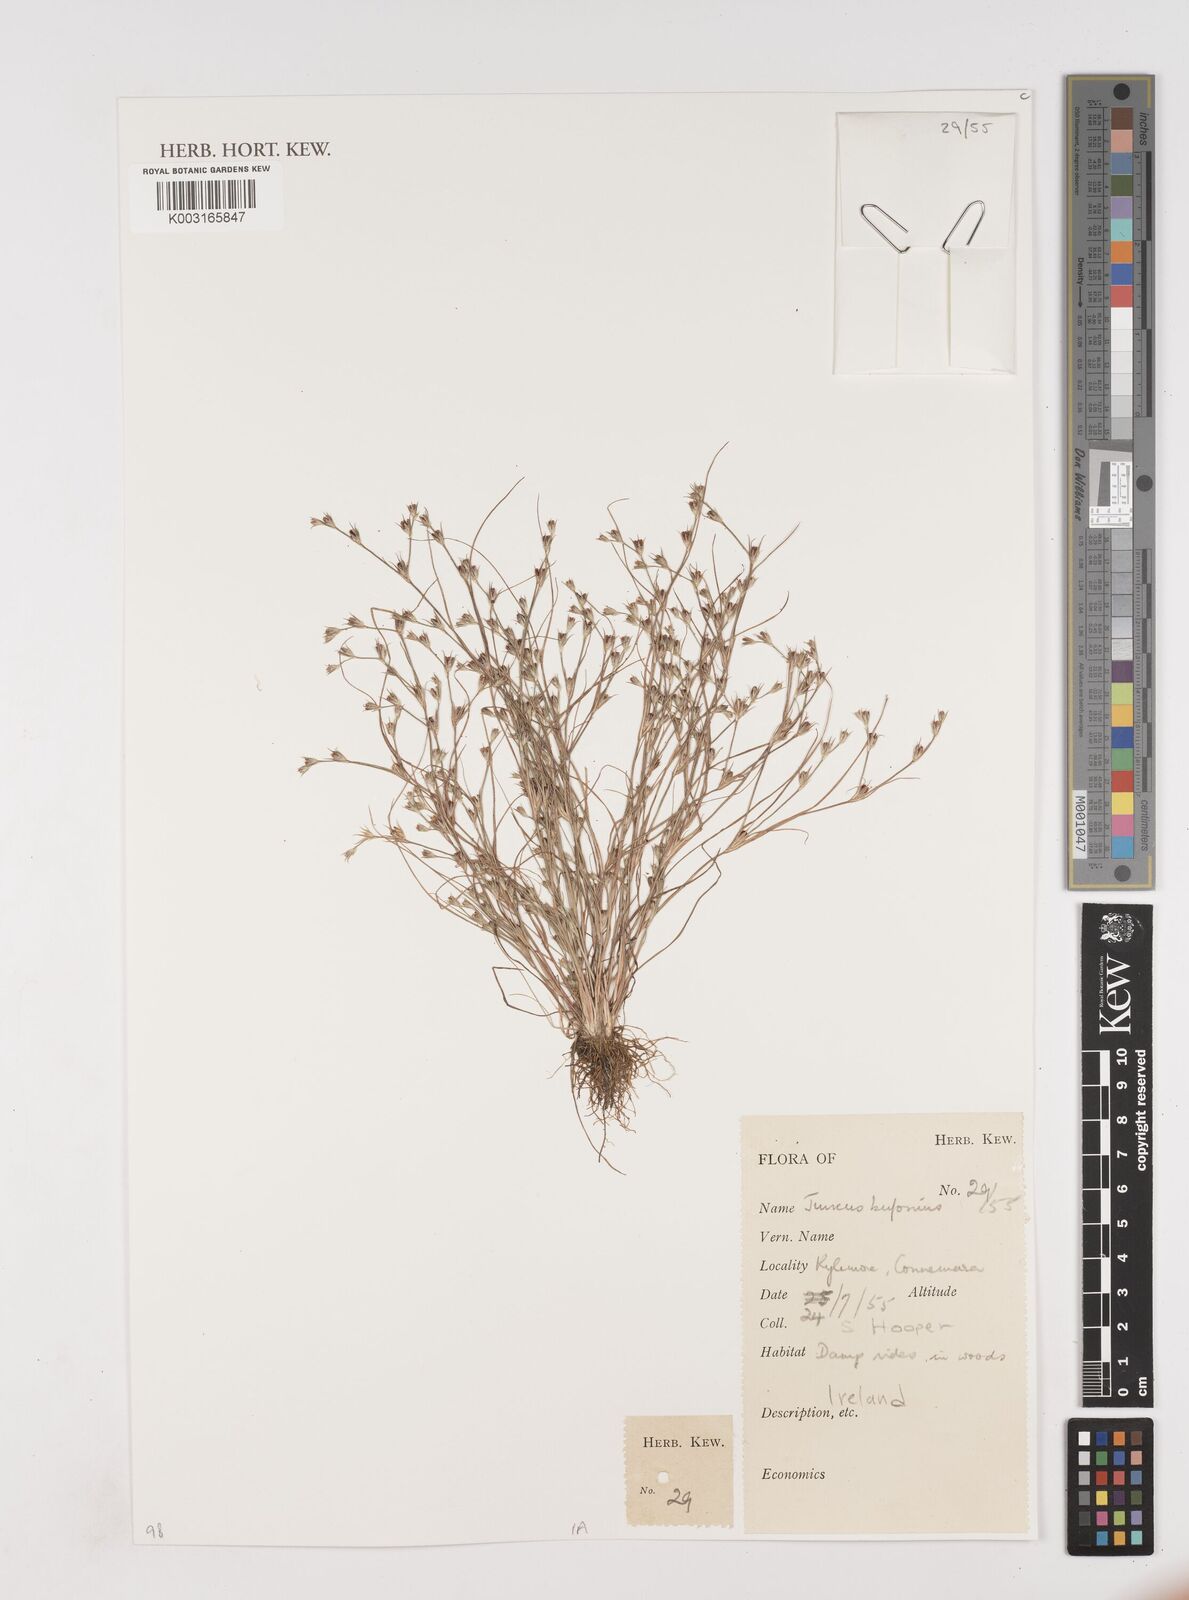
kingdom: Plantae
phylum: Tracheophyta
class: Liliopsida
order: Poales
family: Juncaceae
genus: Juncus
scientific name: Juncus bufonius
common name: Toad rush
